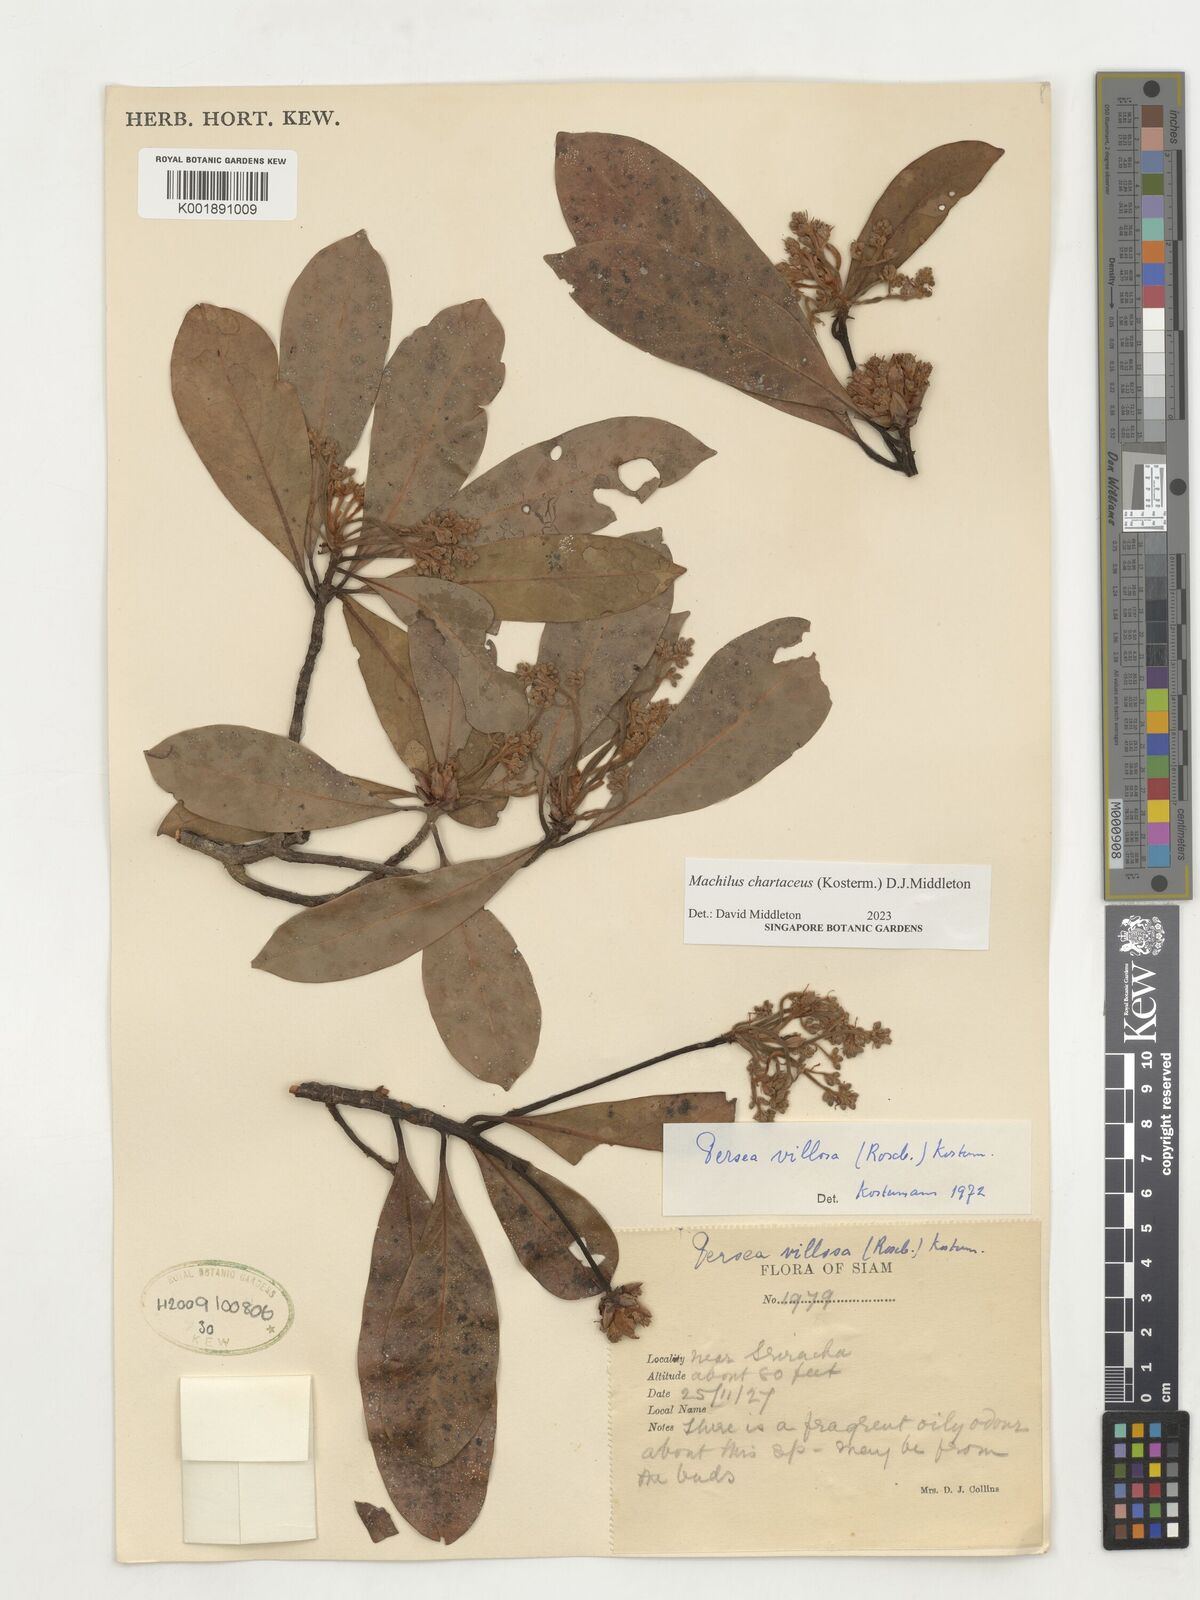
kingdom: Plantae
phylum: Tracheophyta
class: Magnoliopsida
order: Laurales
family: Lauraceae
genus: Machilus
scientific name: Machilus
